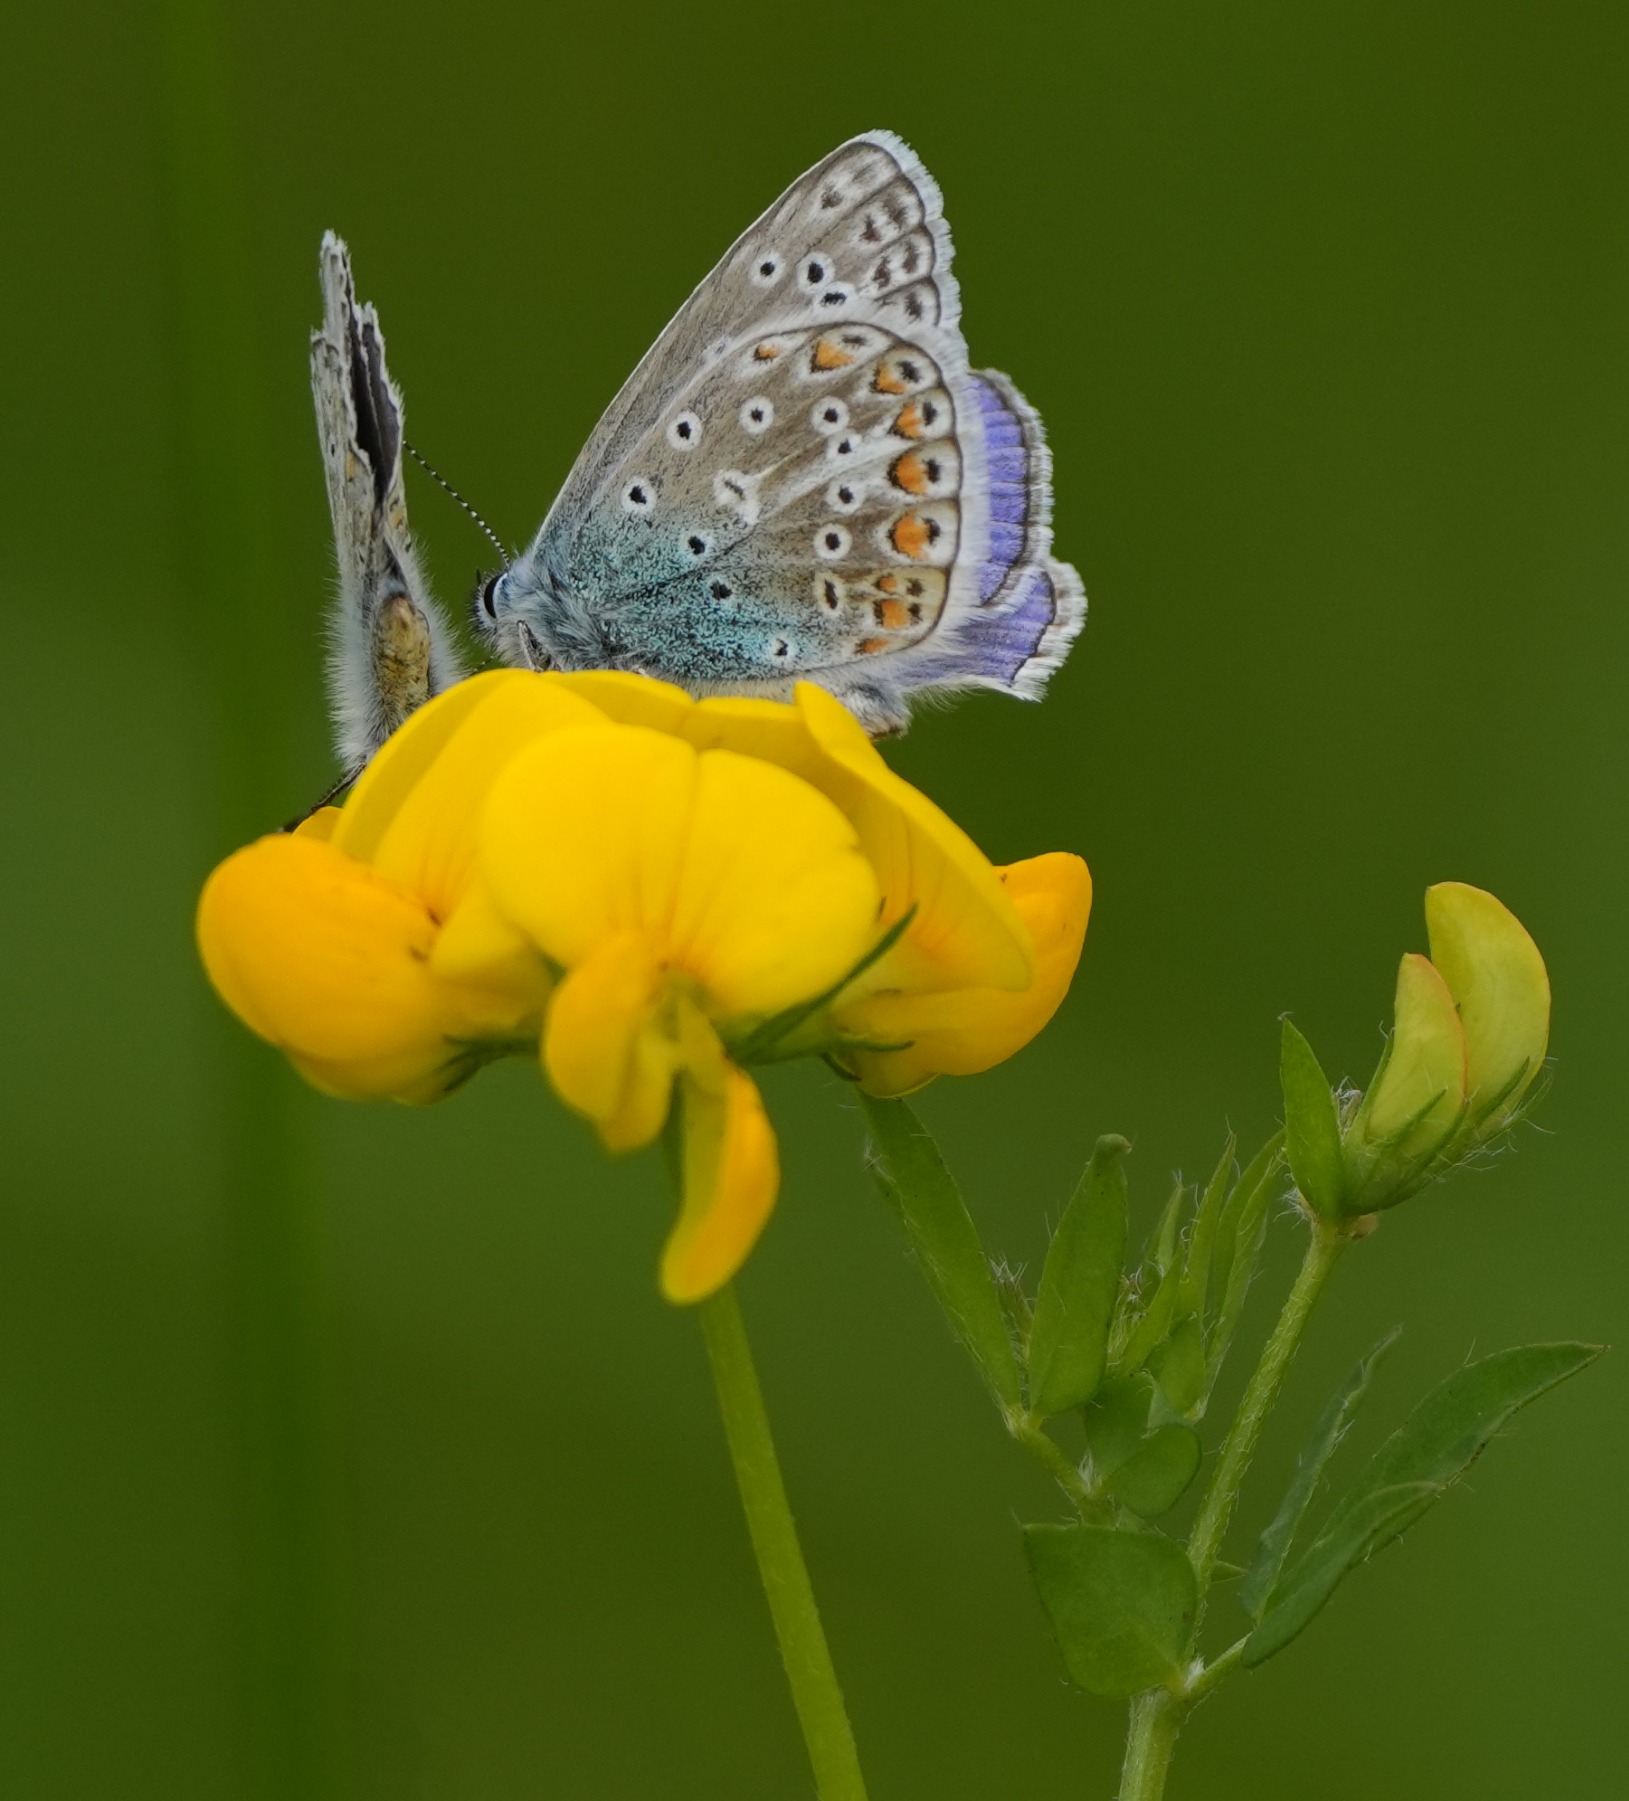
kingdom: Animalia
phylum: Arthropoda
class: Insecta
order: Lepidoptera
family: Lycaenidae
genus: Polyommatus
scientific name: Polyommatus icarus
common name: Almindelig blåfugl
